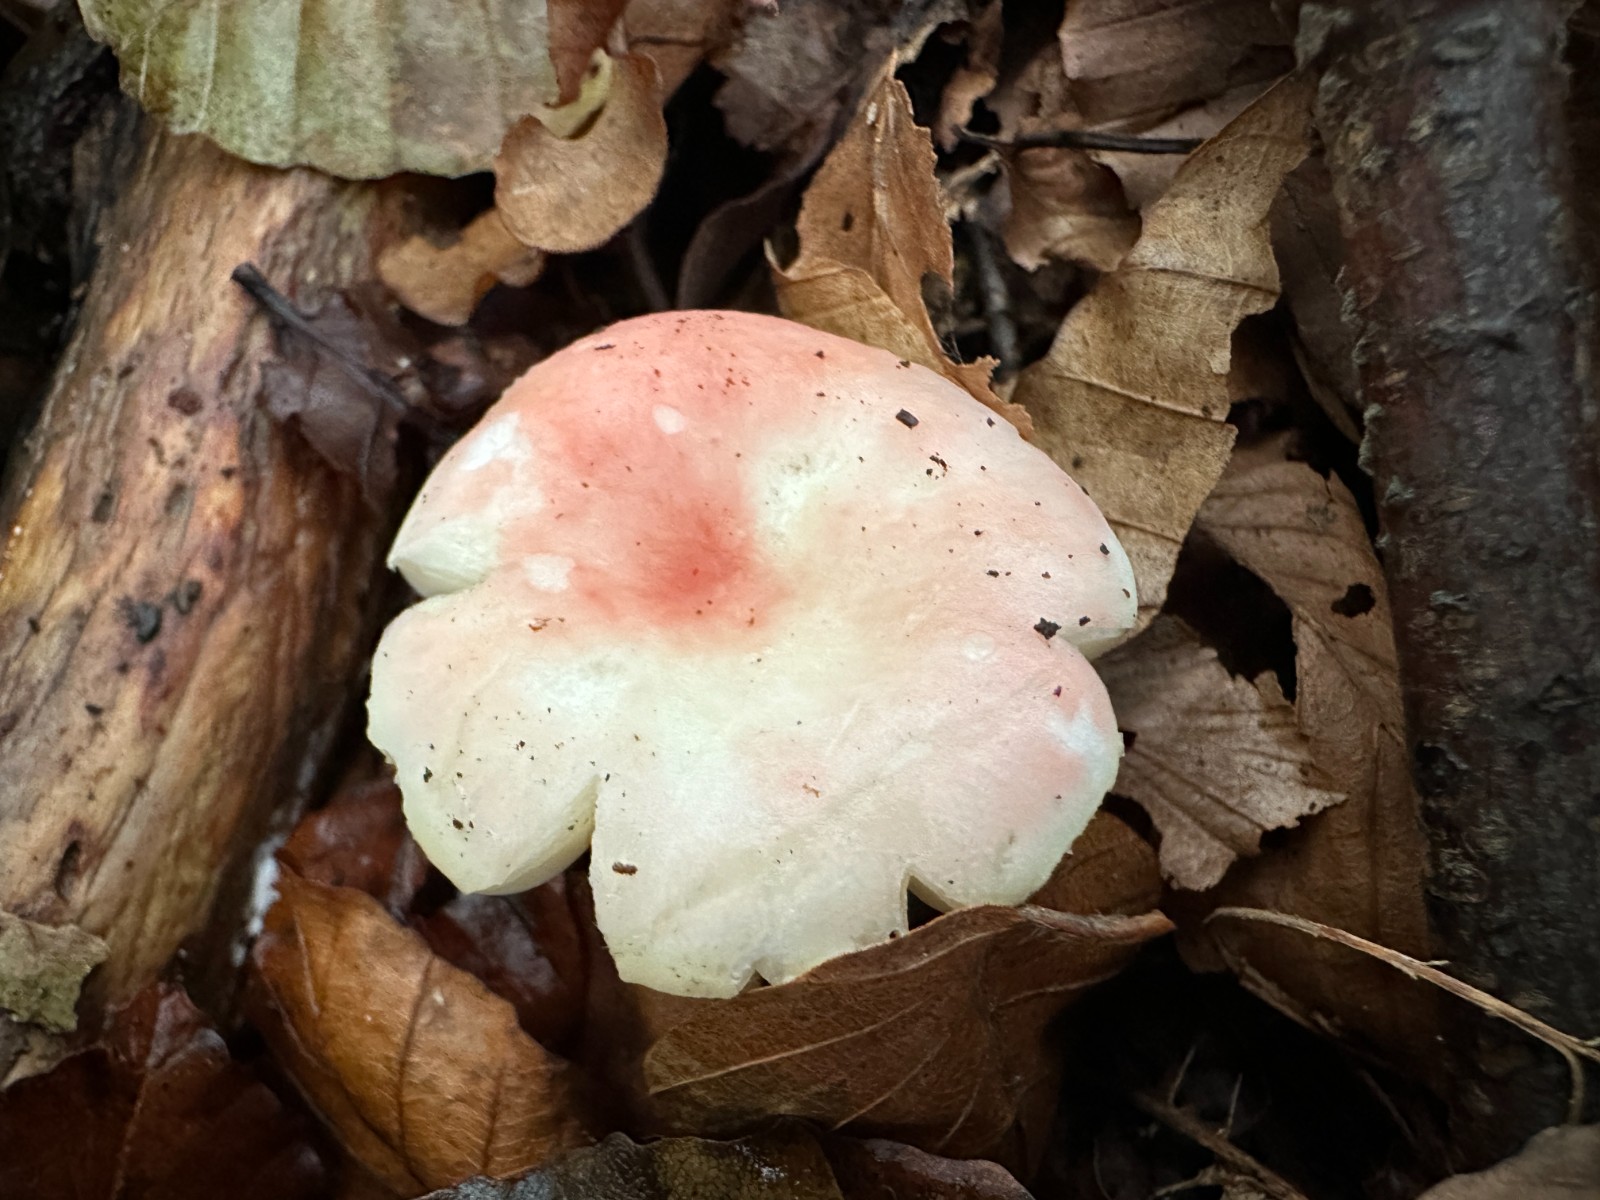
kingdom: Fungi
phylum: Basidiomycota
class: Agaricomycetes
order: Russulales
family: Russulaceae
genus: Russula
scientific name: Russula nobilis
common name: lille gift-skørhat
